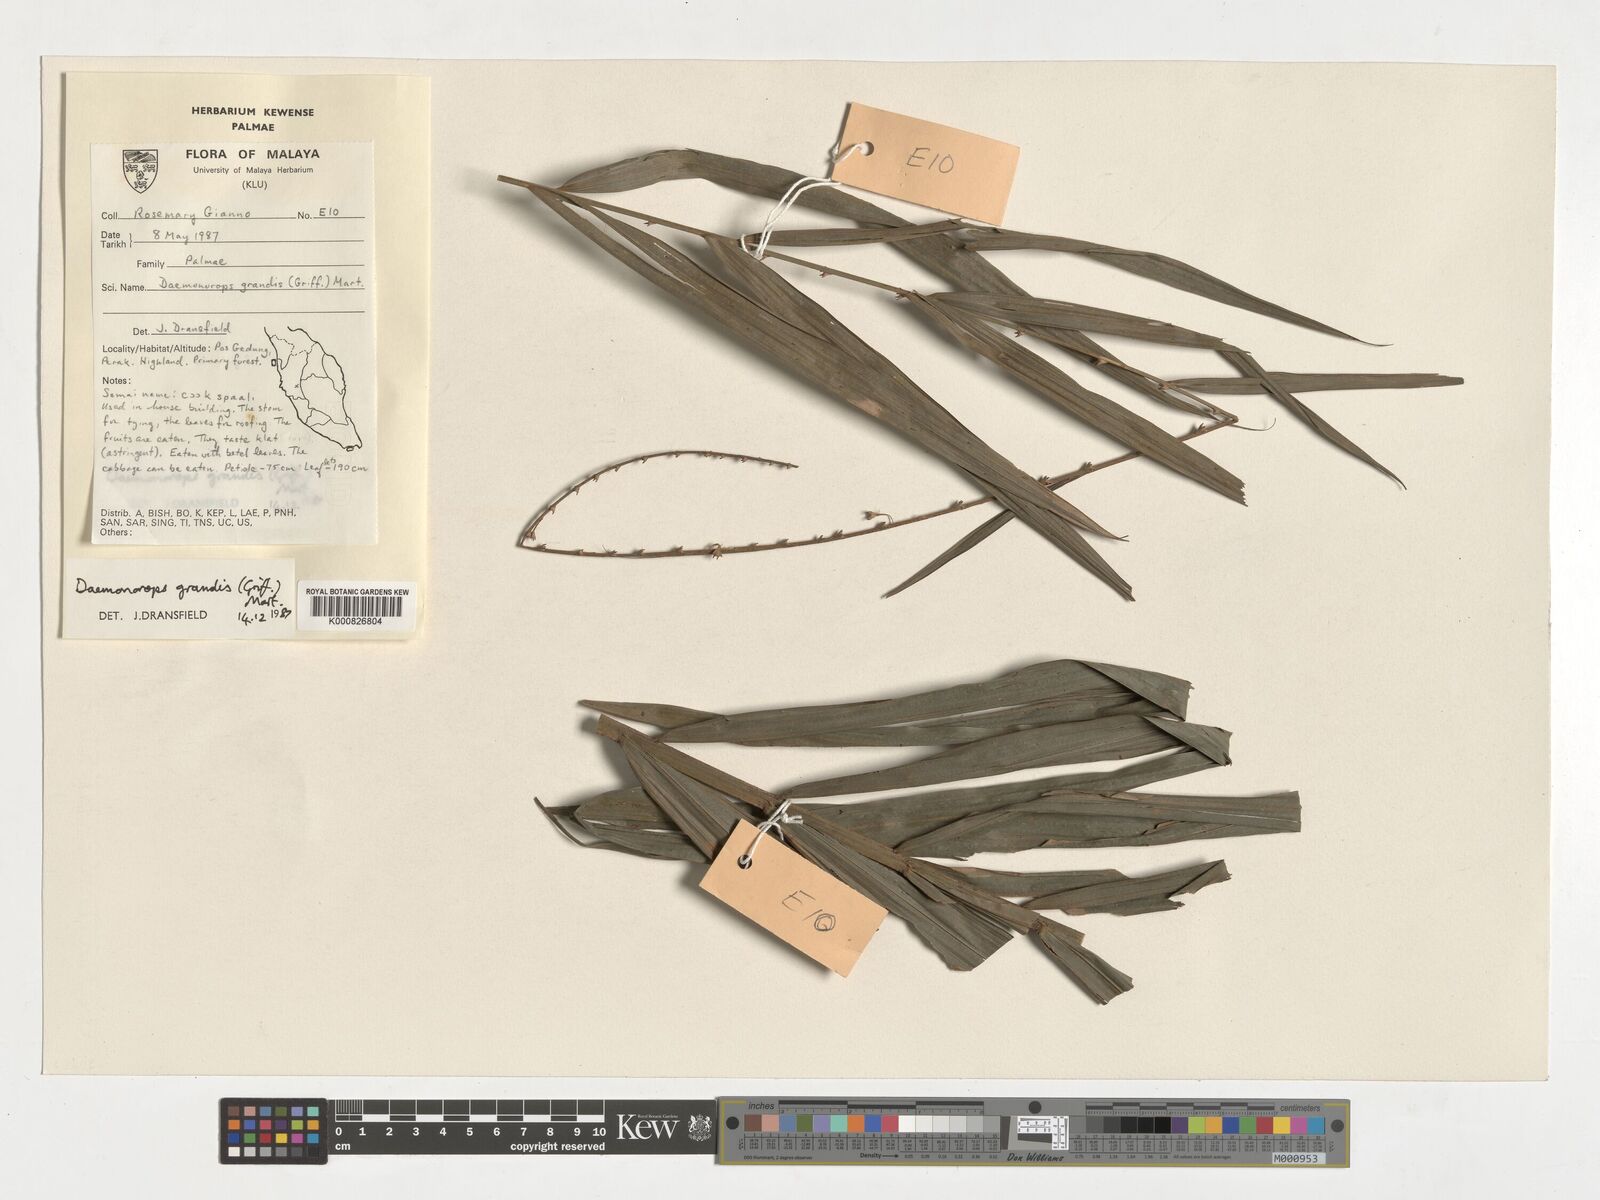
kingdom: Plantae
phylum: Tracheophyta
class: Liliopsida
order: Arecales
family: Arecaceae
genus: Calamus
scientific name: Calamus melanochaetes
